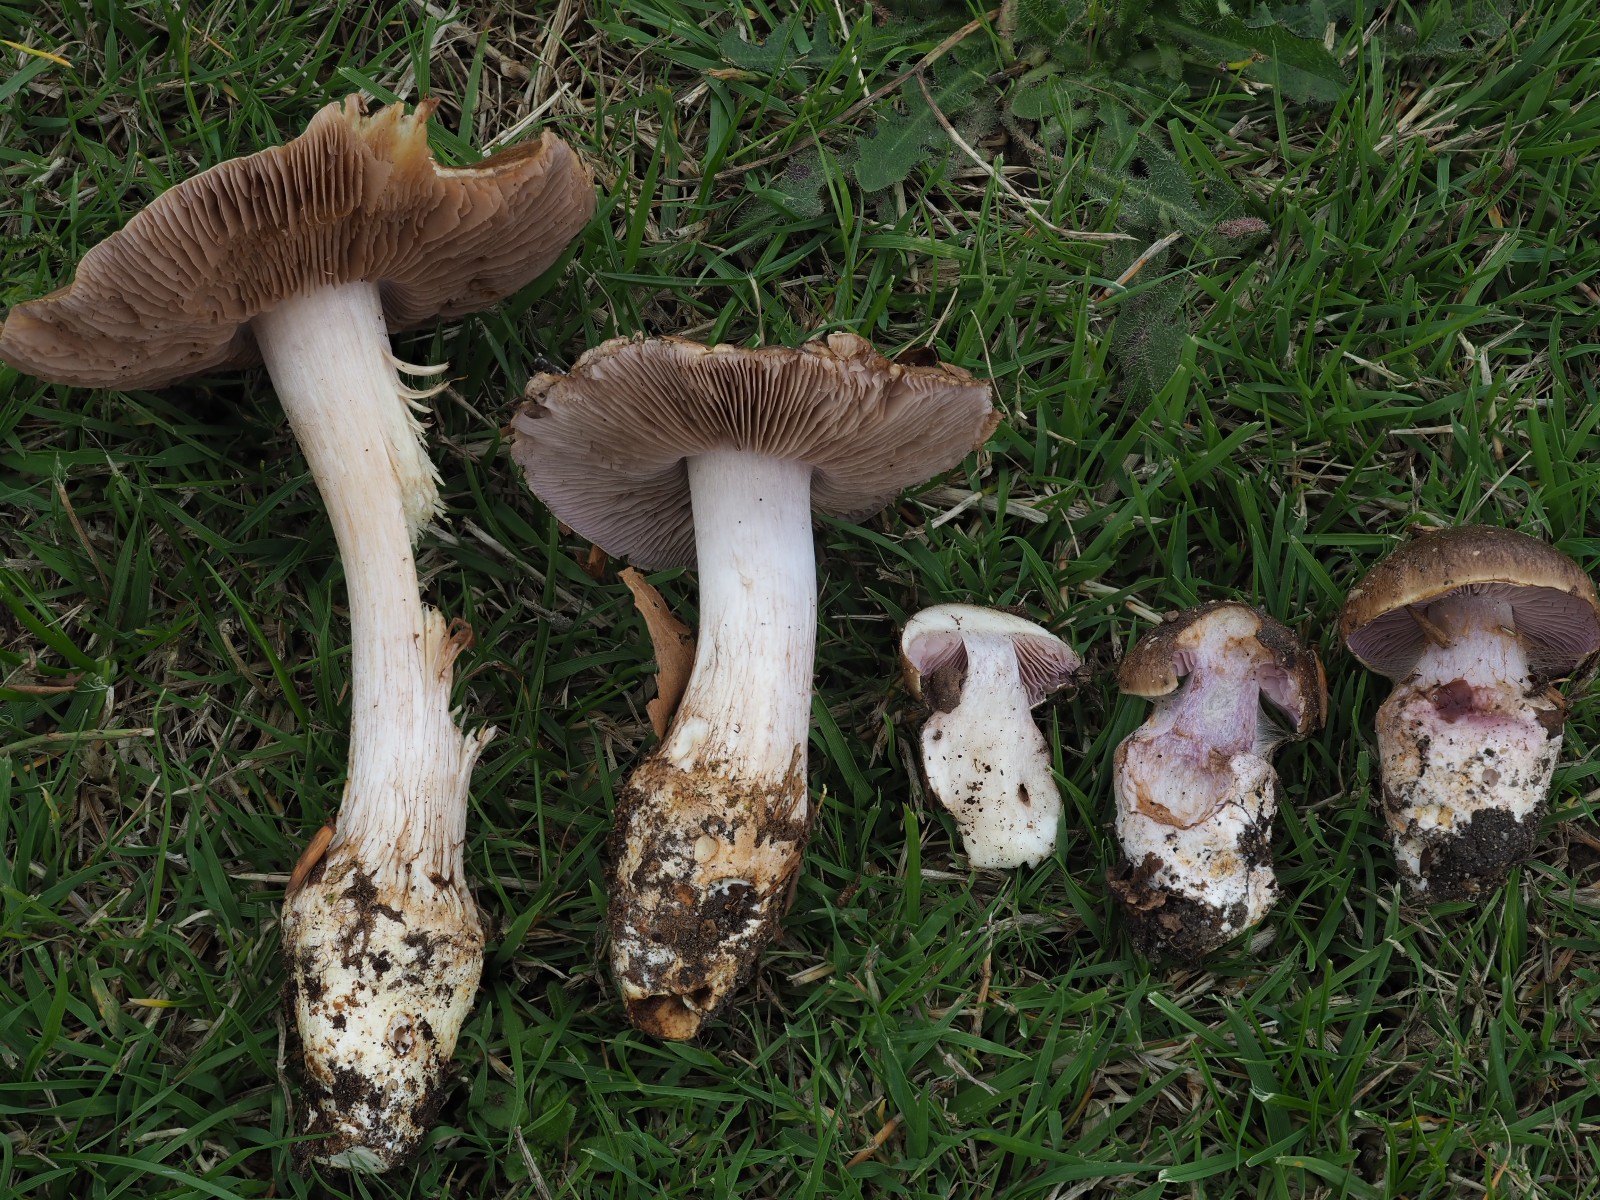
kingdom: Fungi
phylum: Basidiomycota
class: Agaricomycetes
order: Agaricales
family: Cortinariaceae
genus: Calonarius
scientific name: Calonarius aureocalceolatus
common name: spidsknoldet Slørhat
